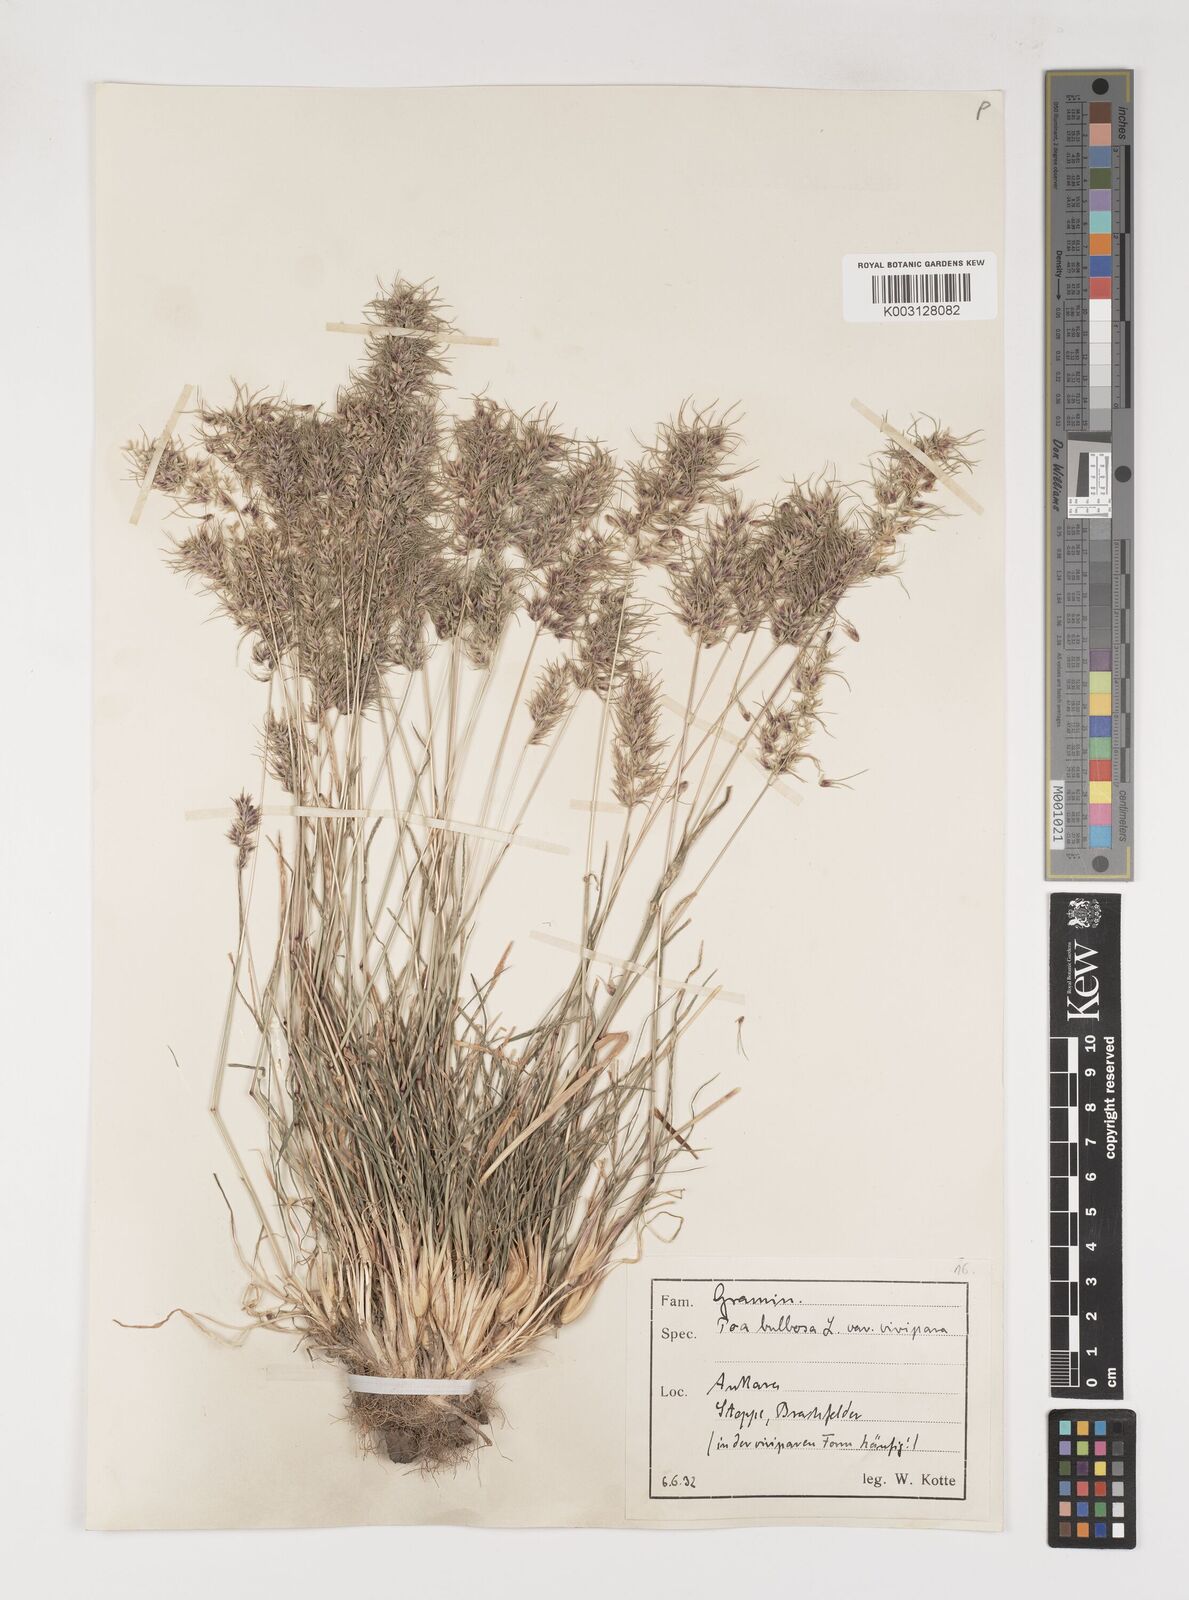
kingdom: Plantae
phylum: Tracheophyta
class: Liliopsida
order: Poales
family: Poaceae
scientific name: Poaceae
